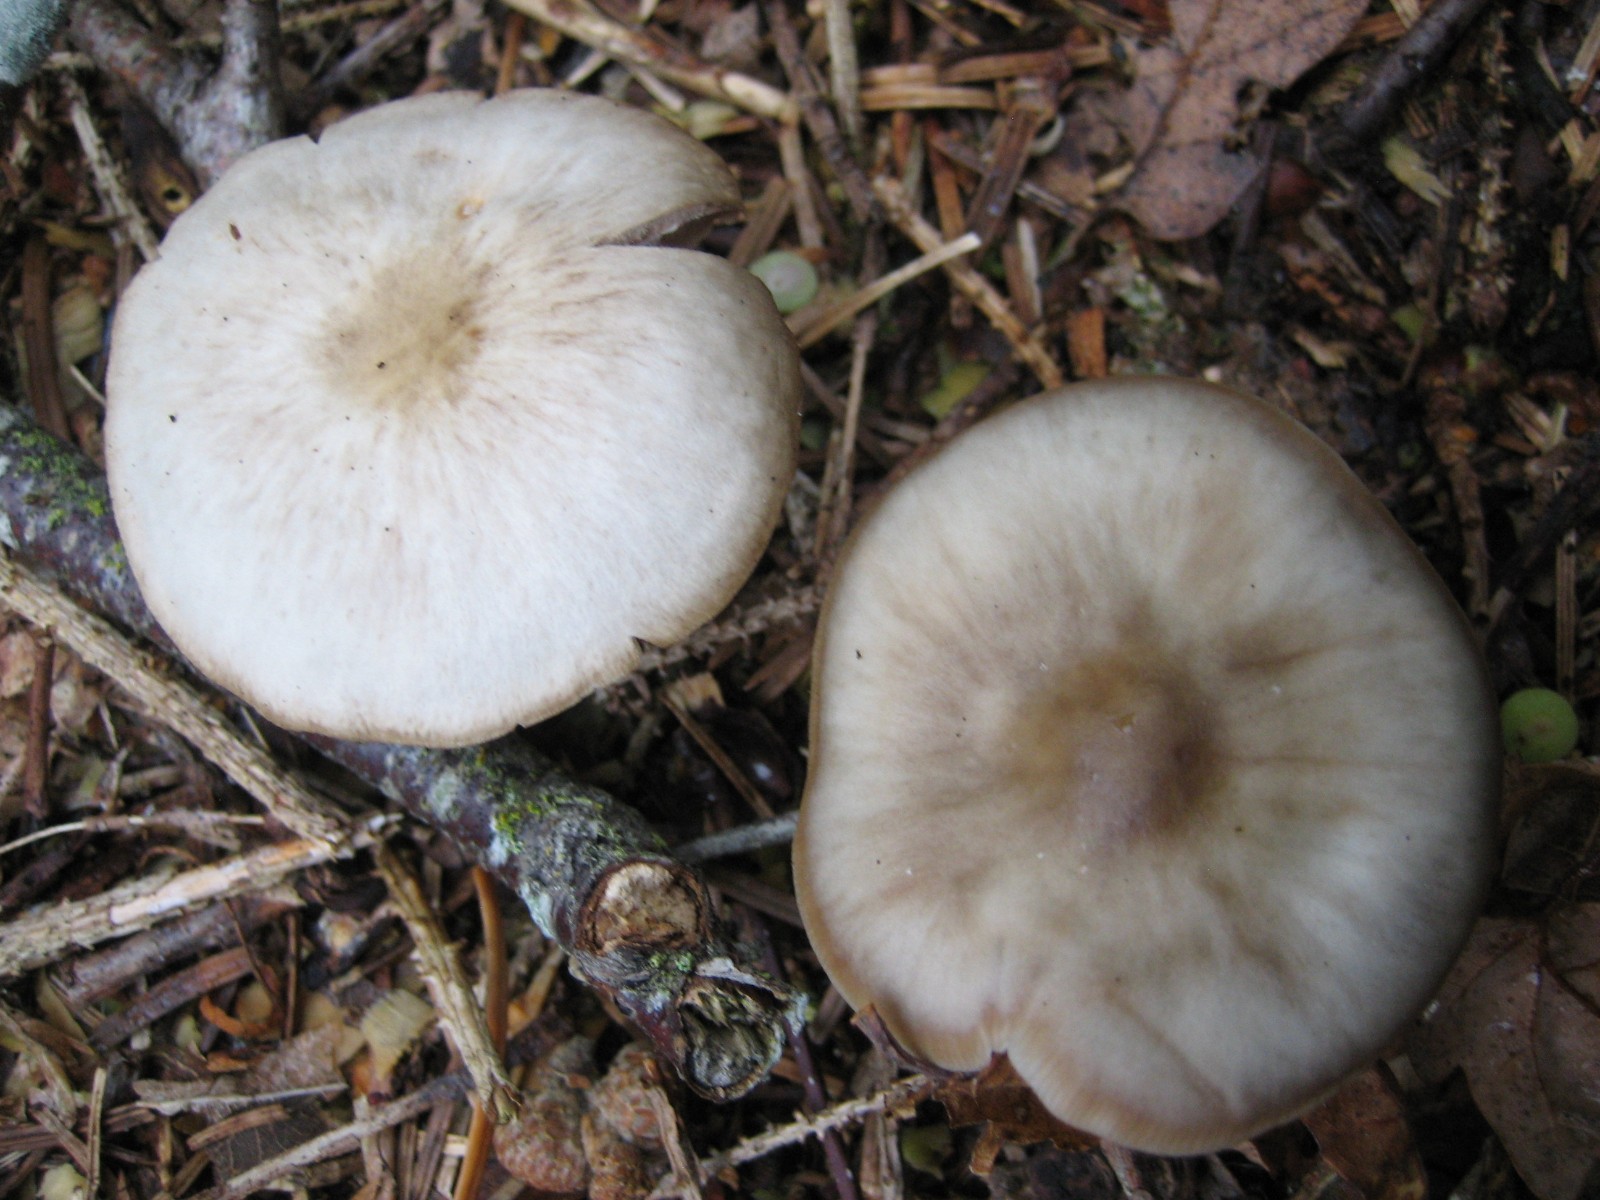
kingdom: Fungi
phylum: Basidiomycota
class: Agaricomycetes
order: Agaricales
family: Omphalotaceae
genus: Rhodocollybia
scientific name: Rhodocollybia asema
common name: horngrå fladhat
